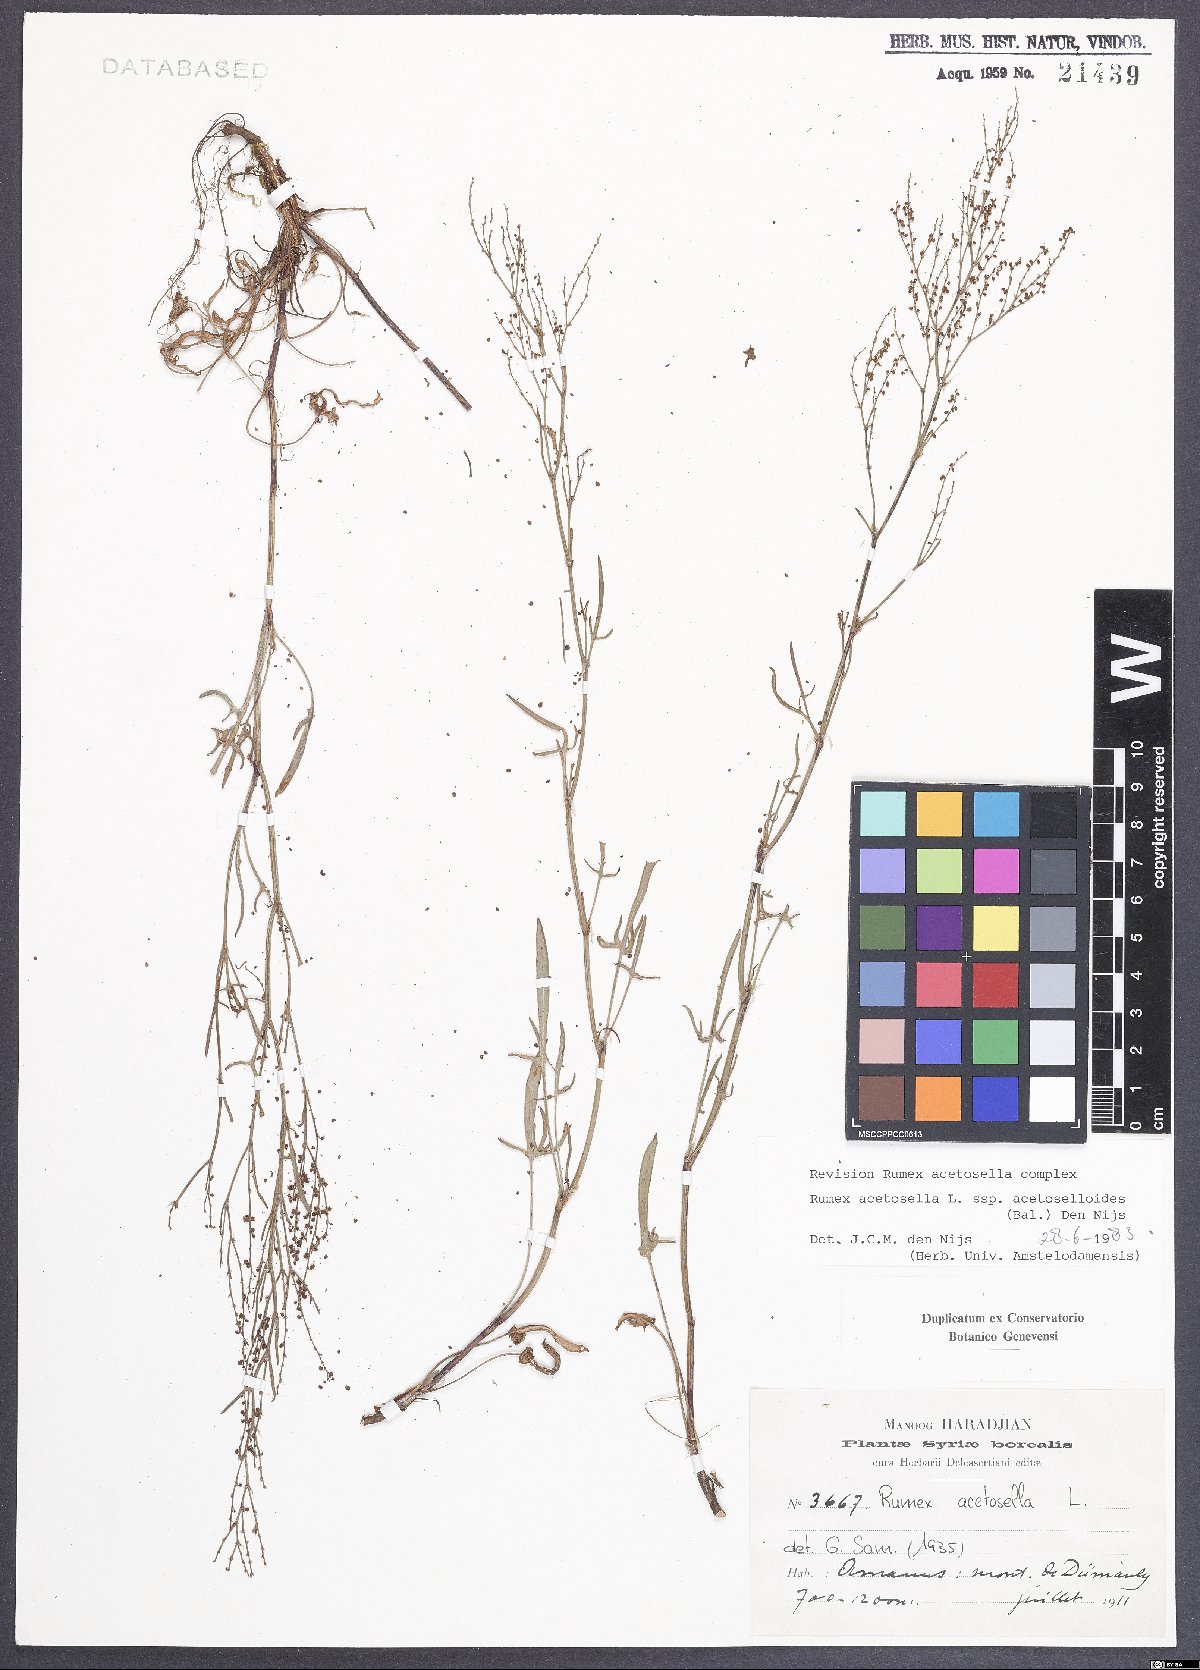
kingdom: Plantae
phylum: Tracheophyta
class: Magnoliopsida
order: Caryophyllales
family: Polygonaceae
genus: Rumex
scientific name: Rumex acetosella
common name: Common sheep sorrel
